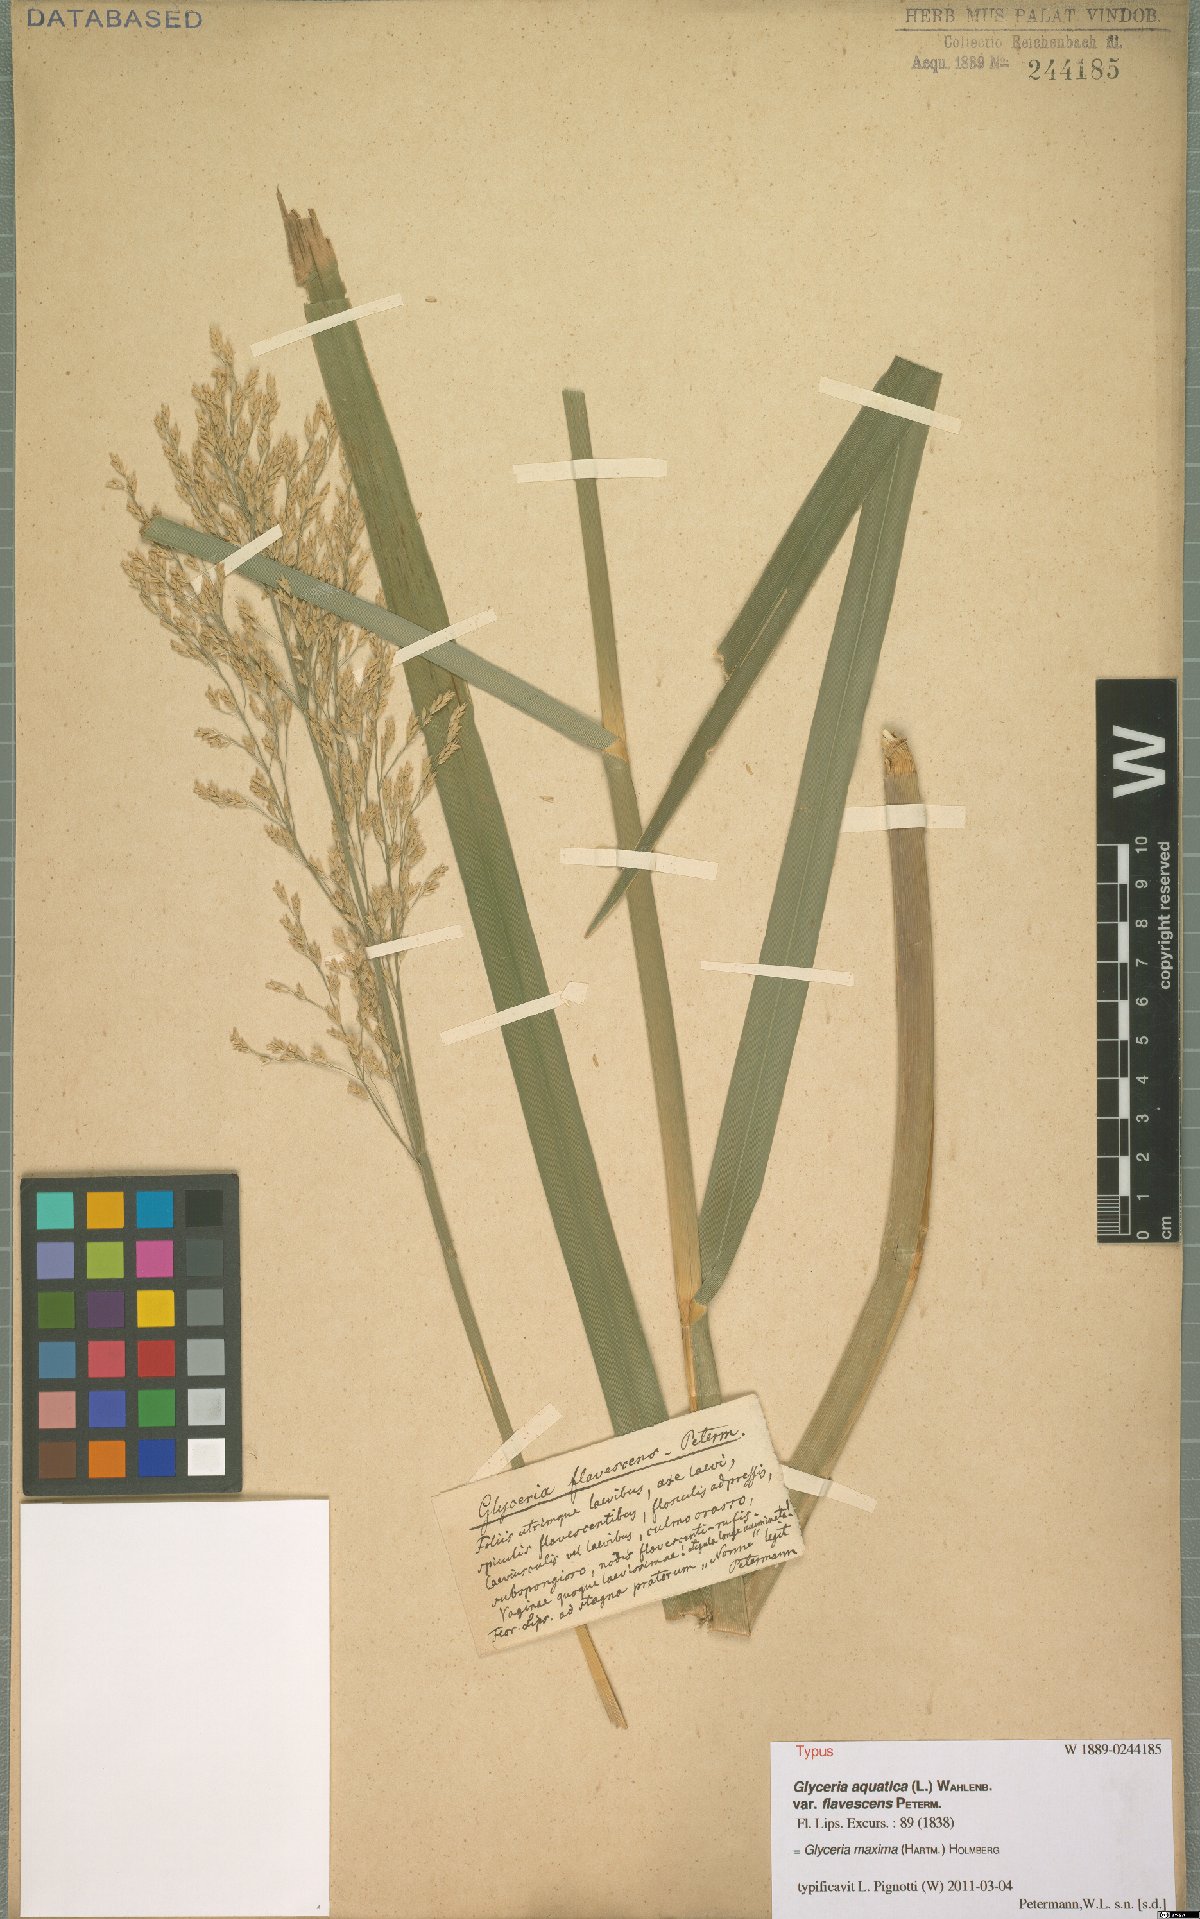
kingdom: Plantae
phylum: Tracheophyta
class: Liliopsida
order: Poales
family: Poaceae
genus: Glyceria
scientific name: Glyceria maxima
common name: Reed mannagrass
